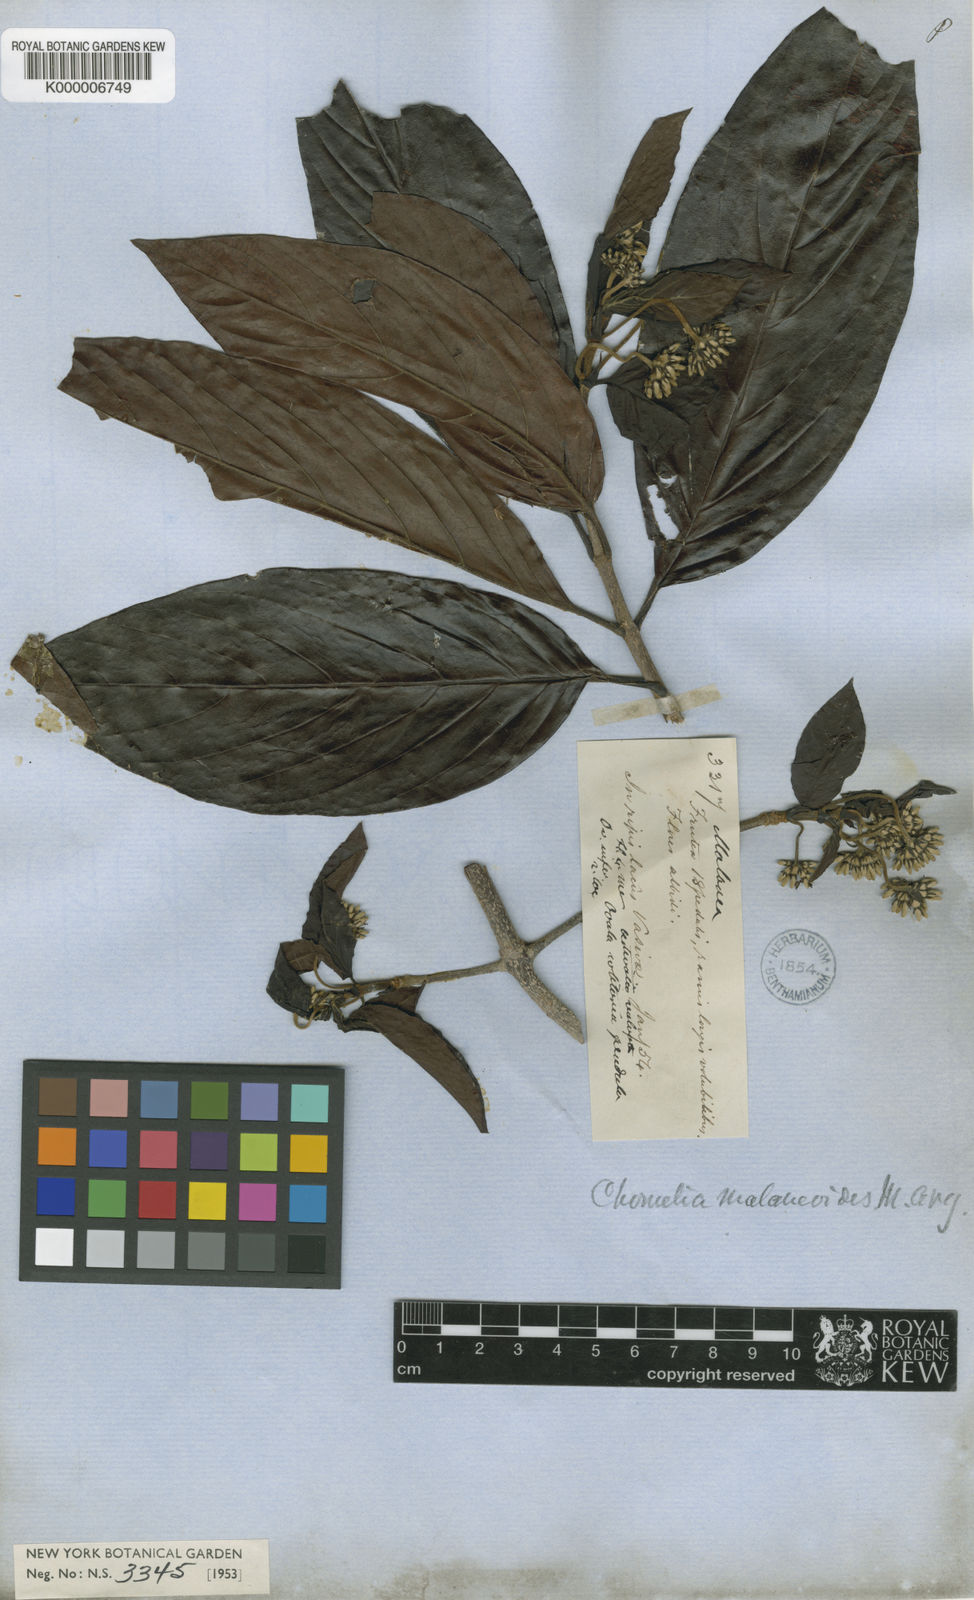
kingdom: Plantae
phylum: Tracheophyta
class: Magnoliopsida
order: Gentianales
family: Rubiaceae
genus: Chomelia
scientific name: Chomelia
